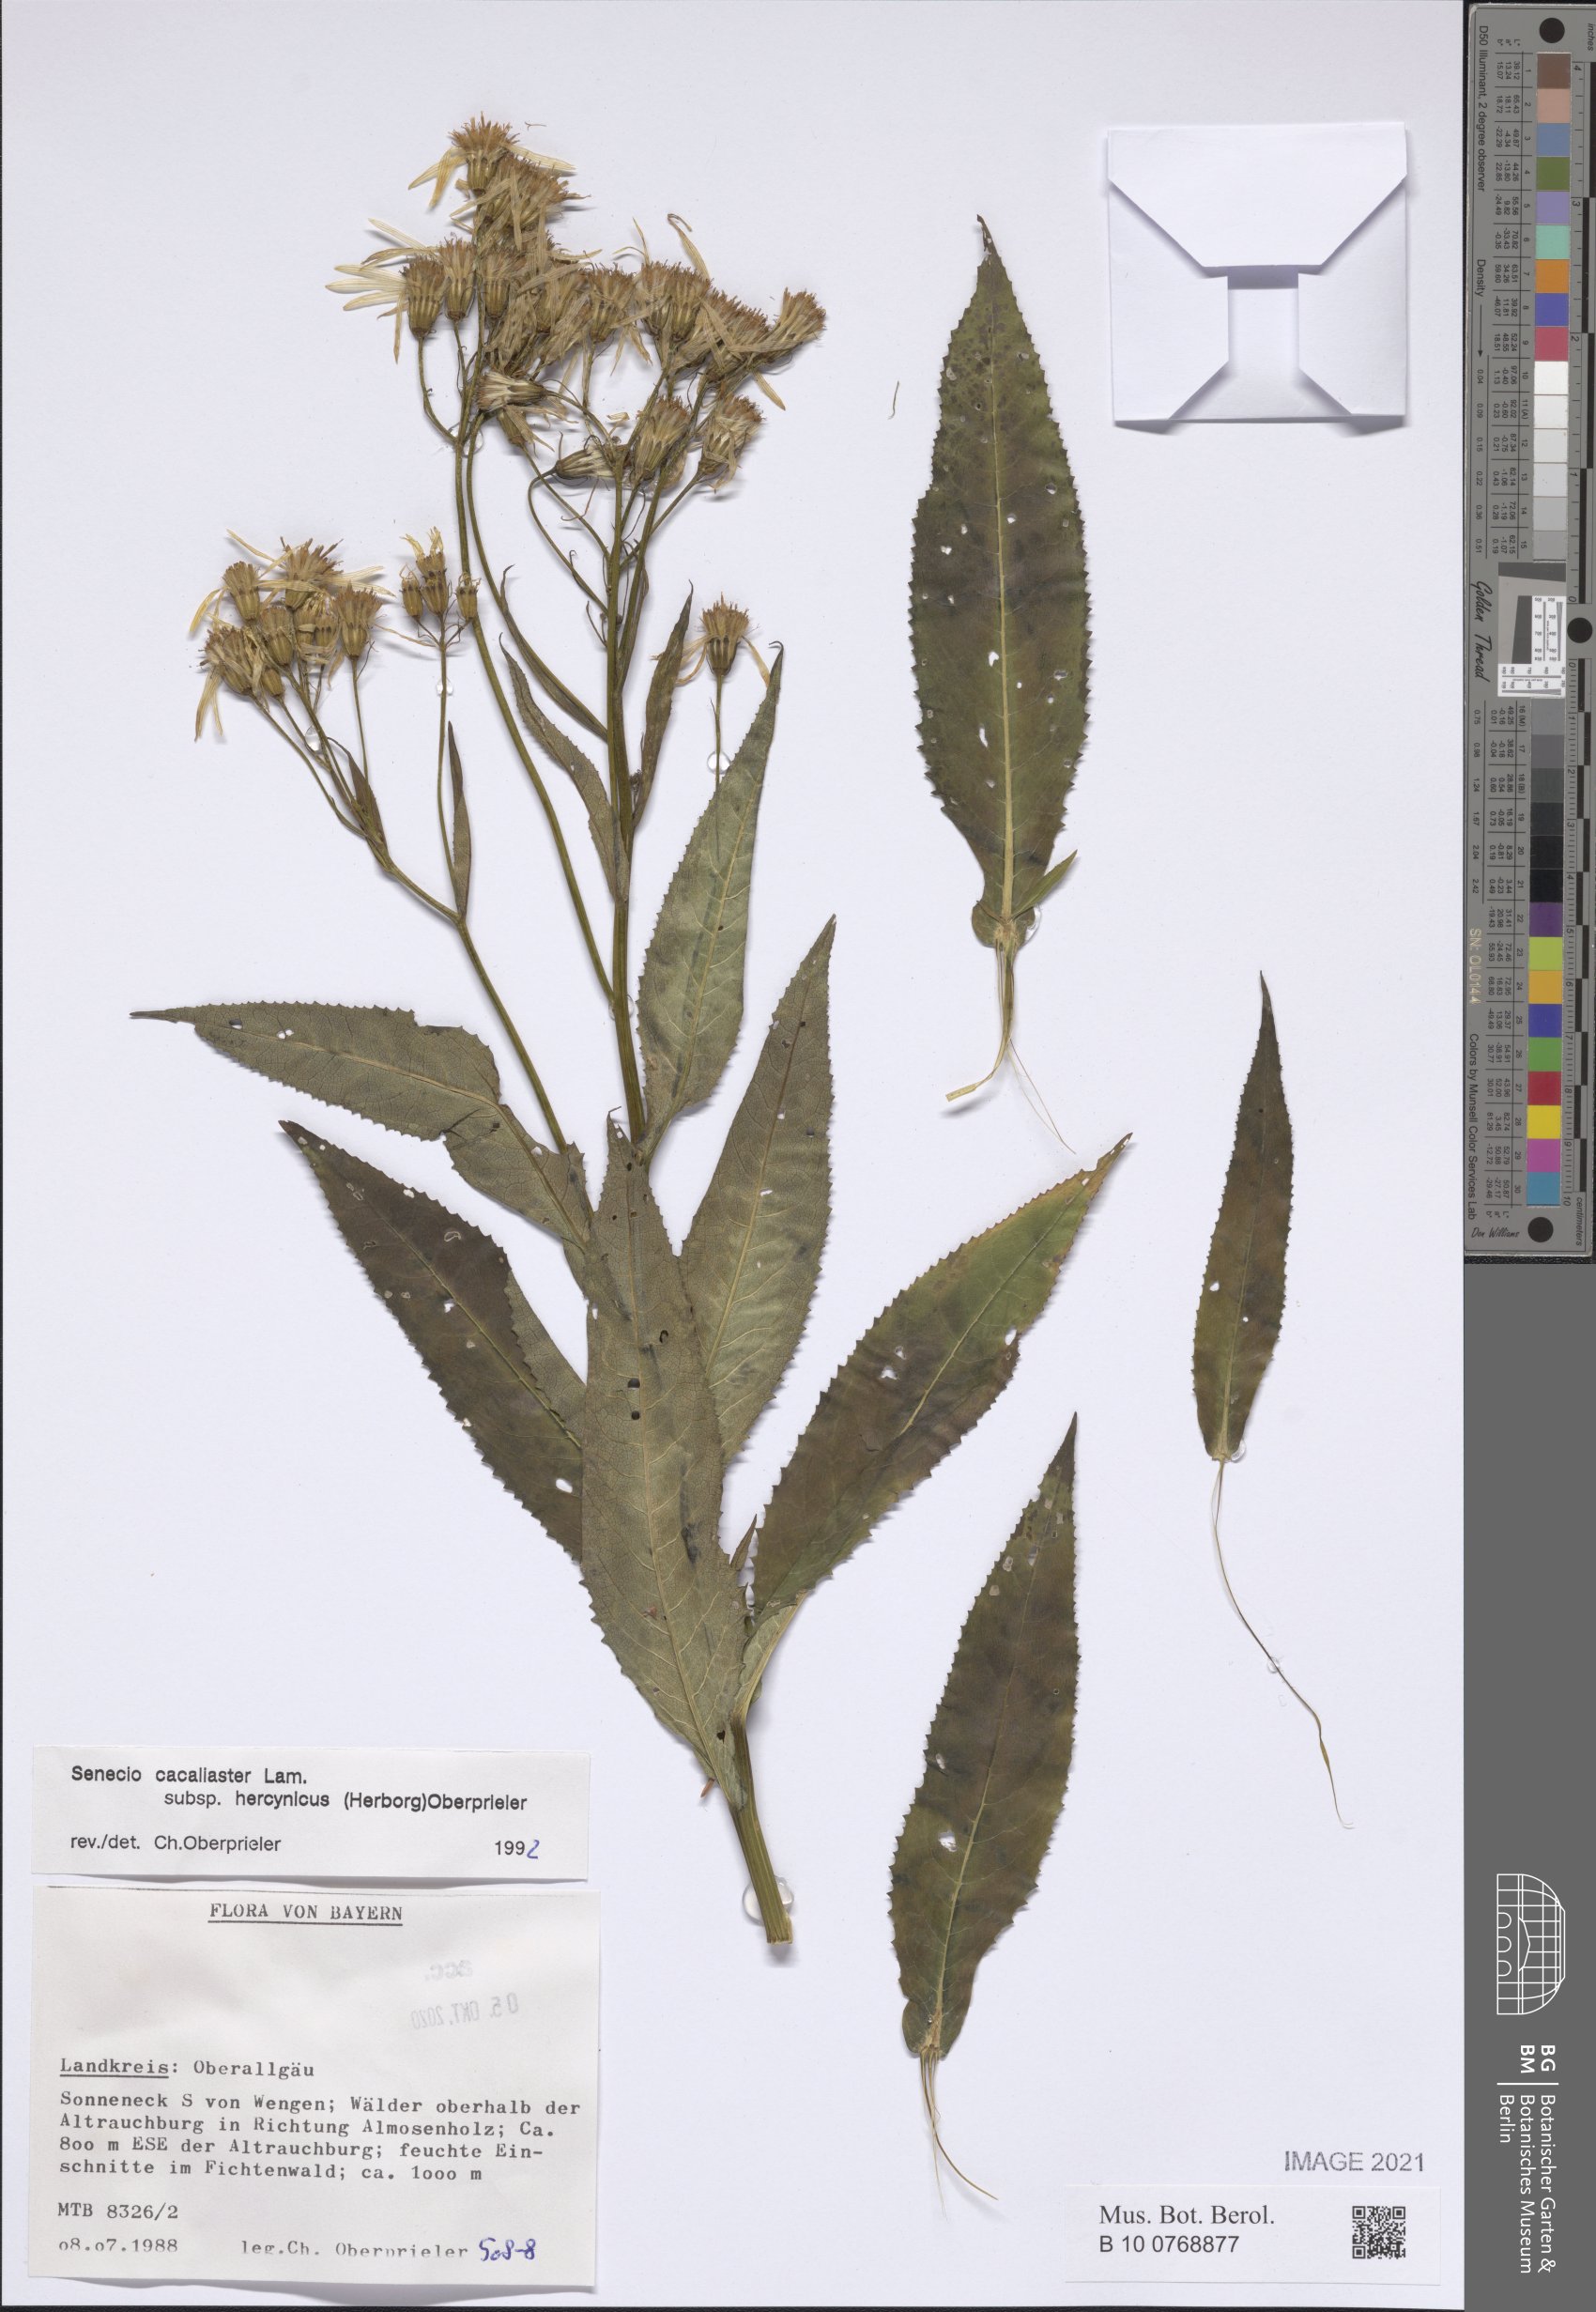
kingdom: Plantae
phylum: Tracheophyta
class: Magnoliopsida
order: Asterales
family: Asteraceae
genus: Senecio
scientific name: Senecio hercynicus
